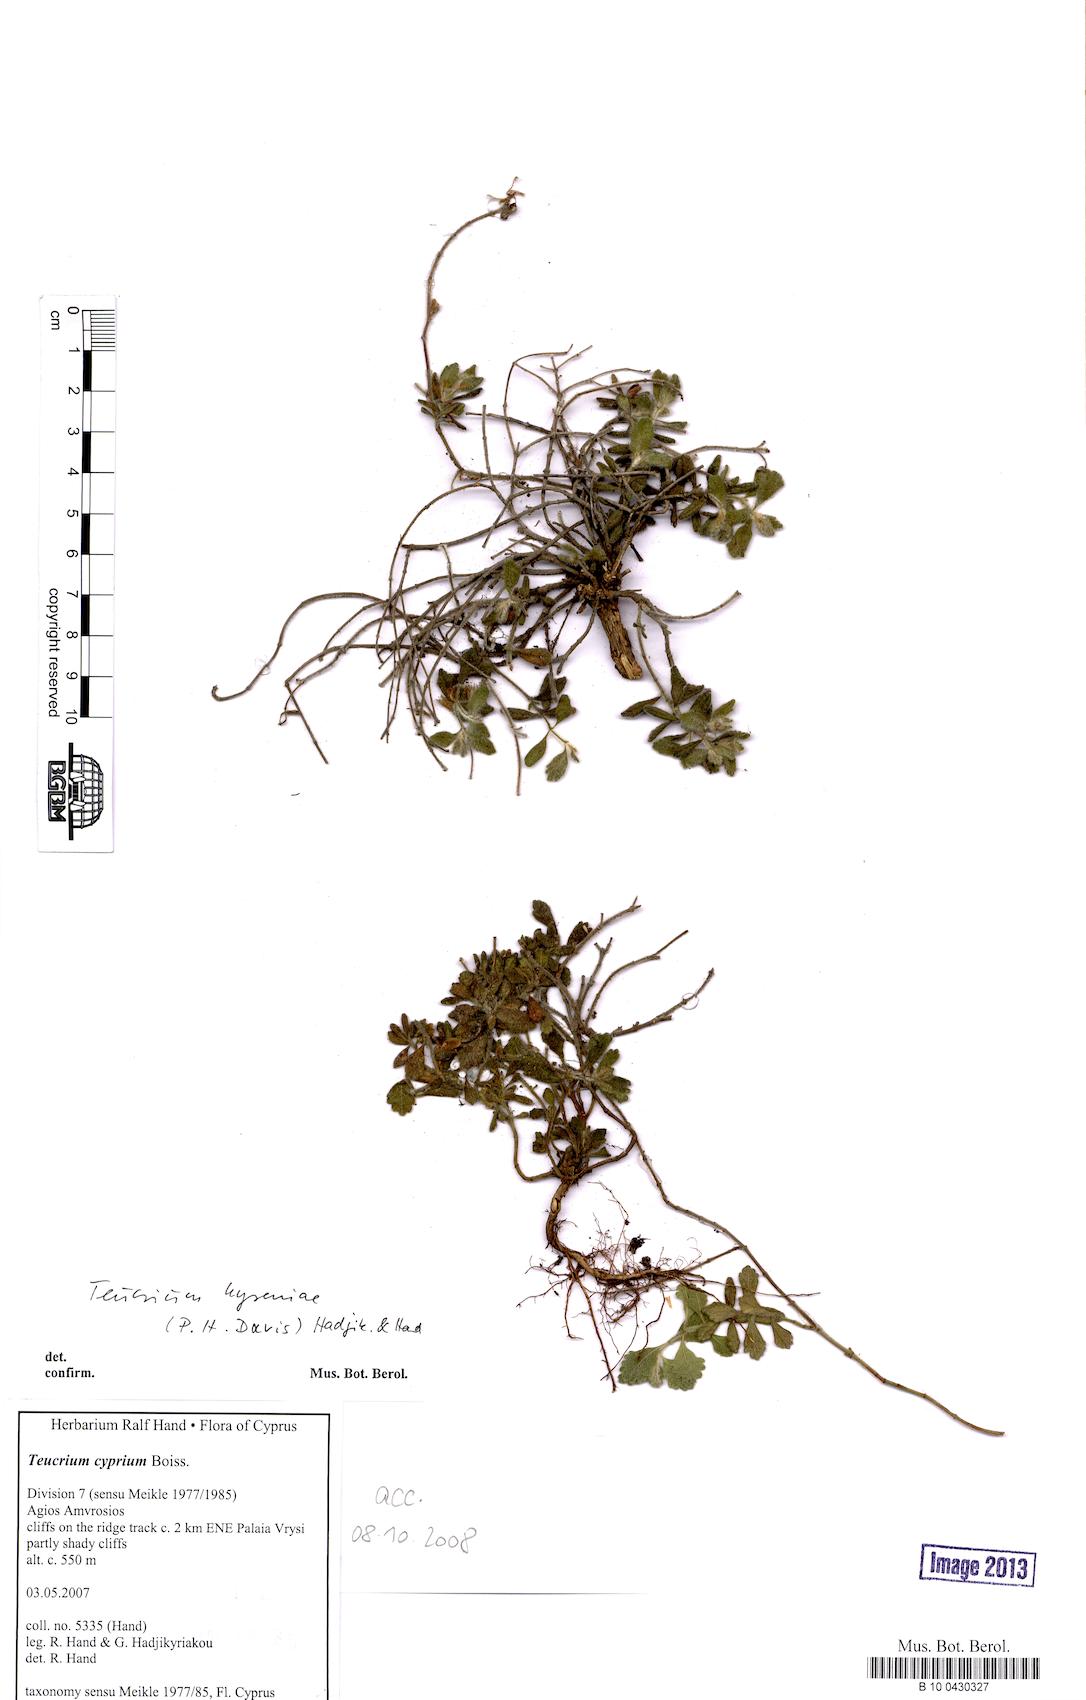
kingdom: Plantae
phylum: Tracheophyta
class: Magnoliopsida
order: Lamiales
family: Lamiaceae
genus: Teucrium
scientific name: Teucrium kyreniae
